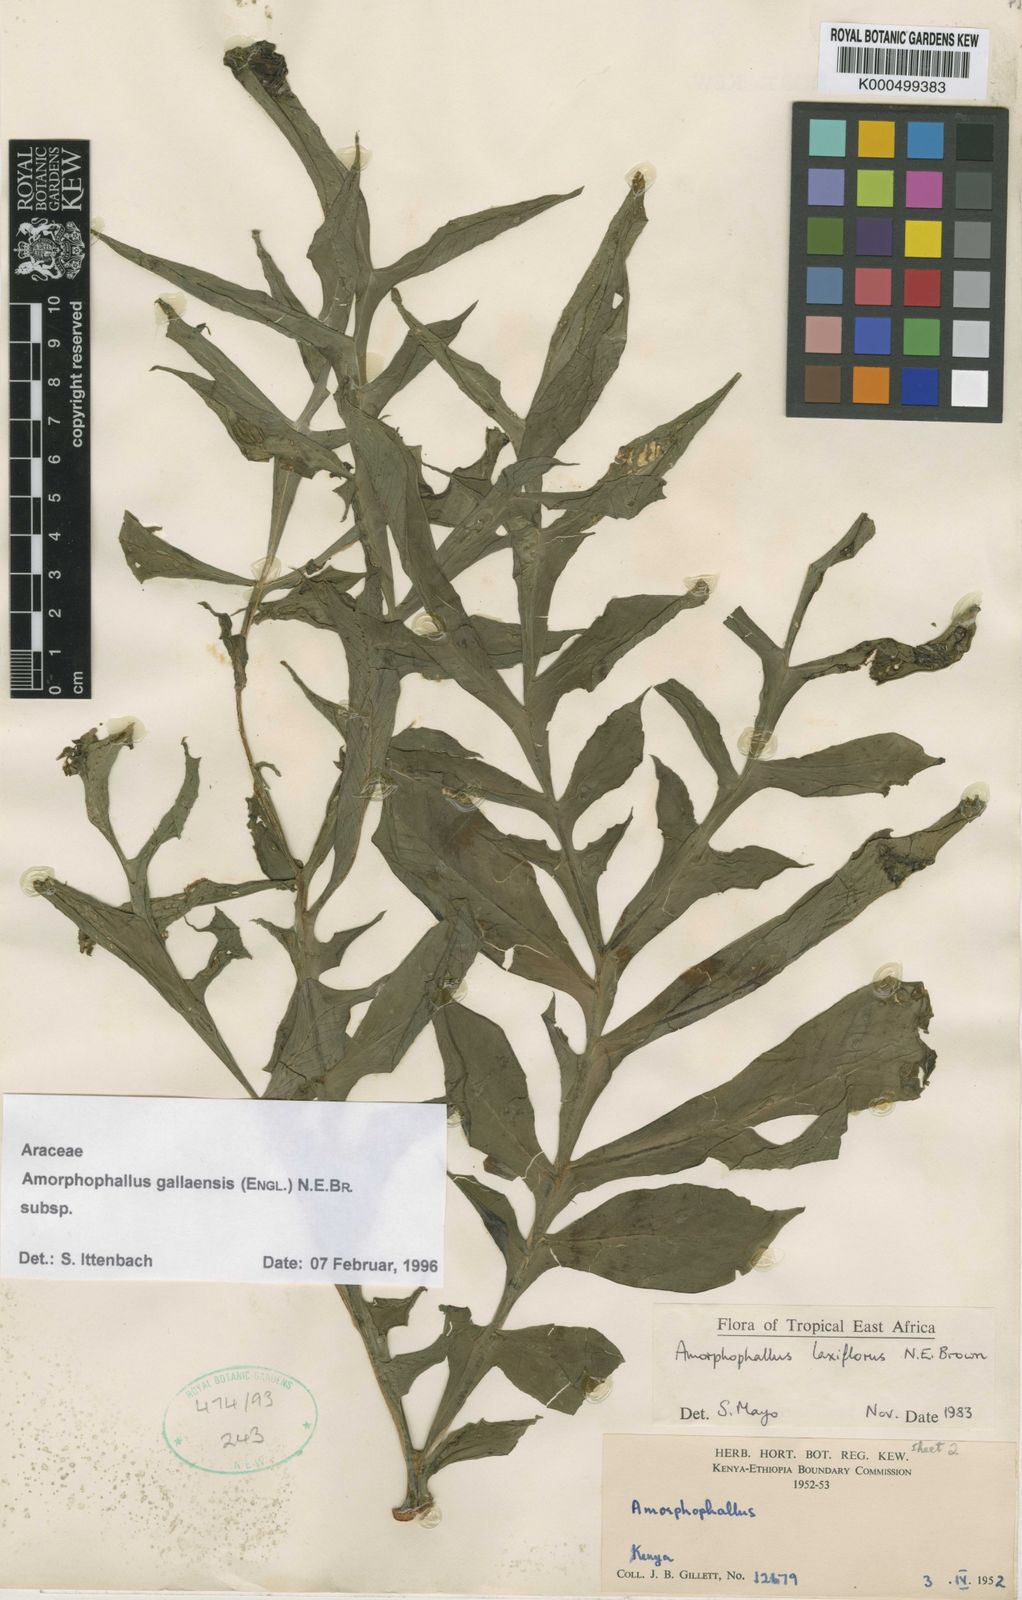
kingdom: Plantae
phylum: Tracheophyta
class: Liliopsida
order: Alismatales
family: Araceae
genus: Amorphophallus
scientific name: Amorphophallus gallaensis
